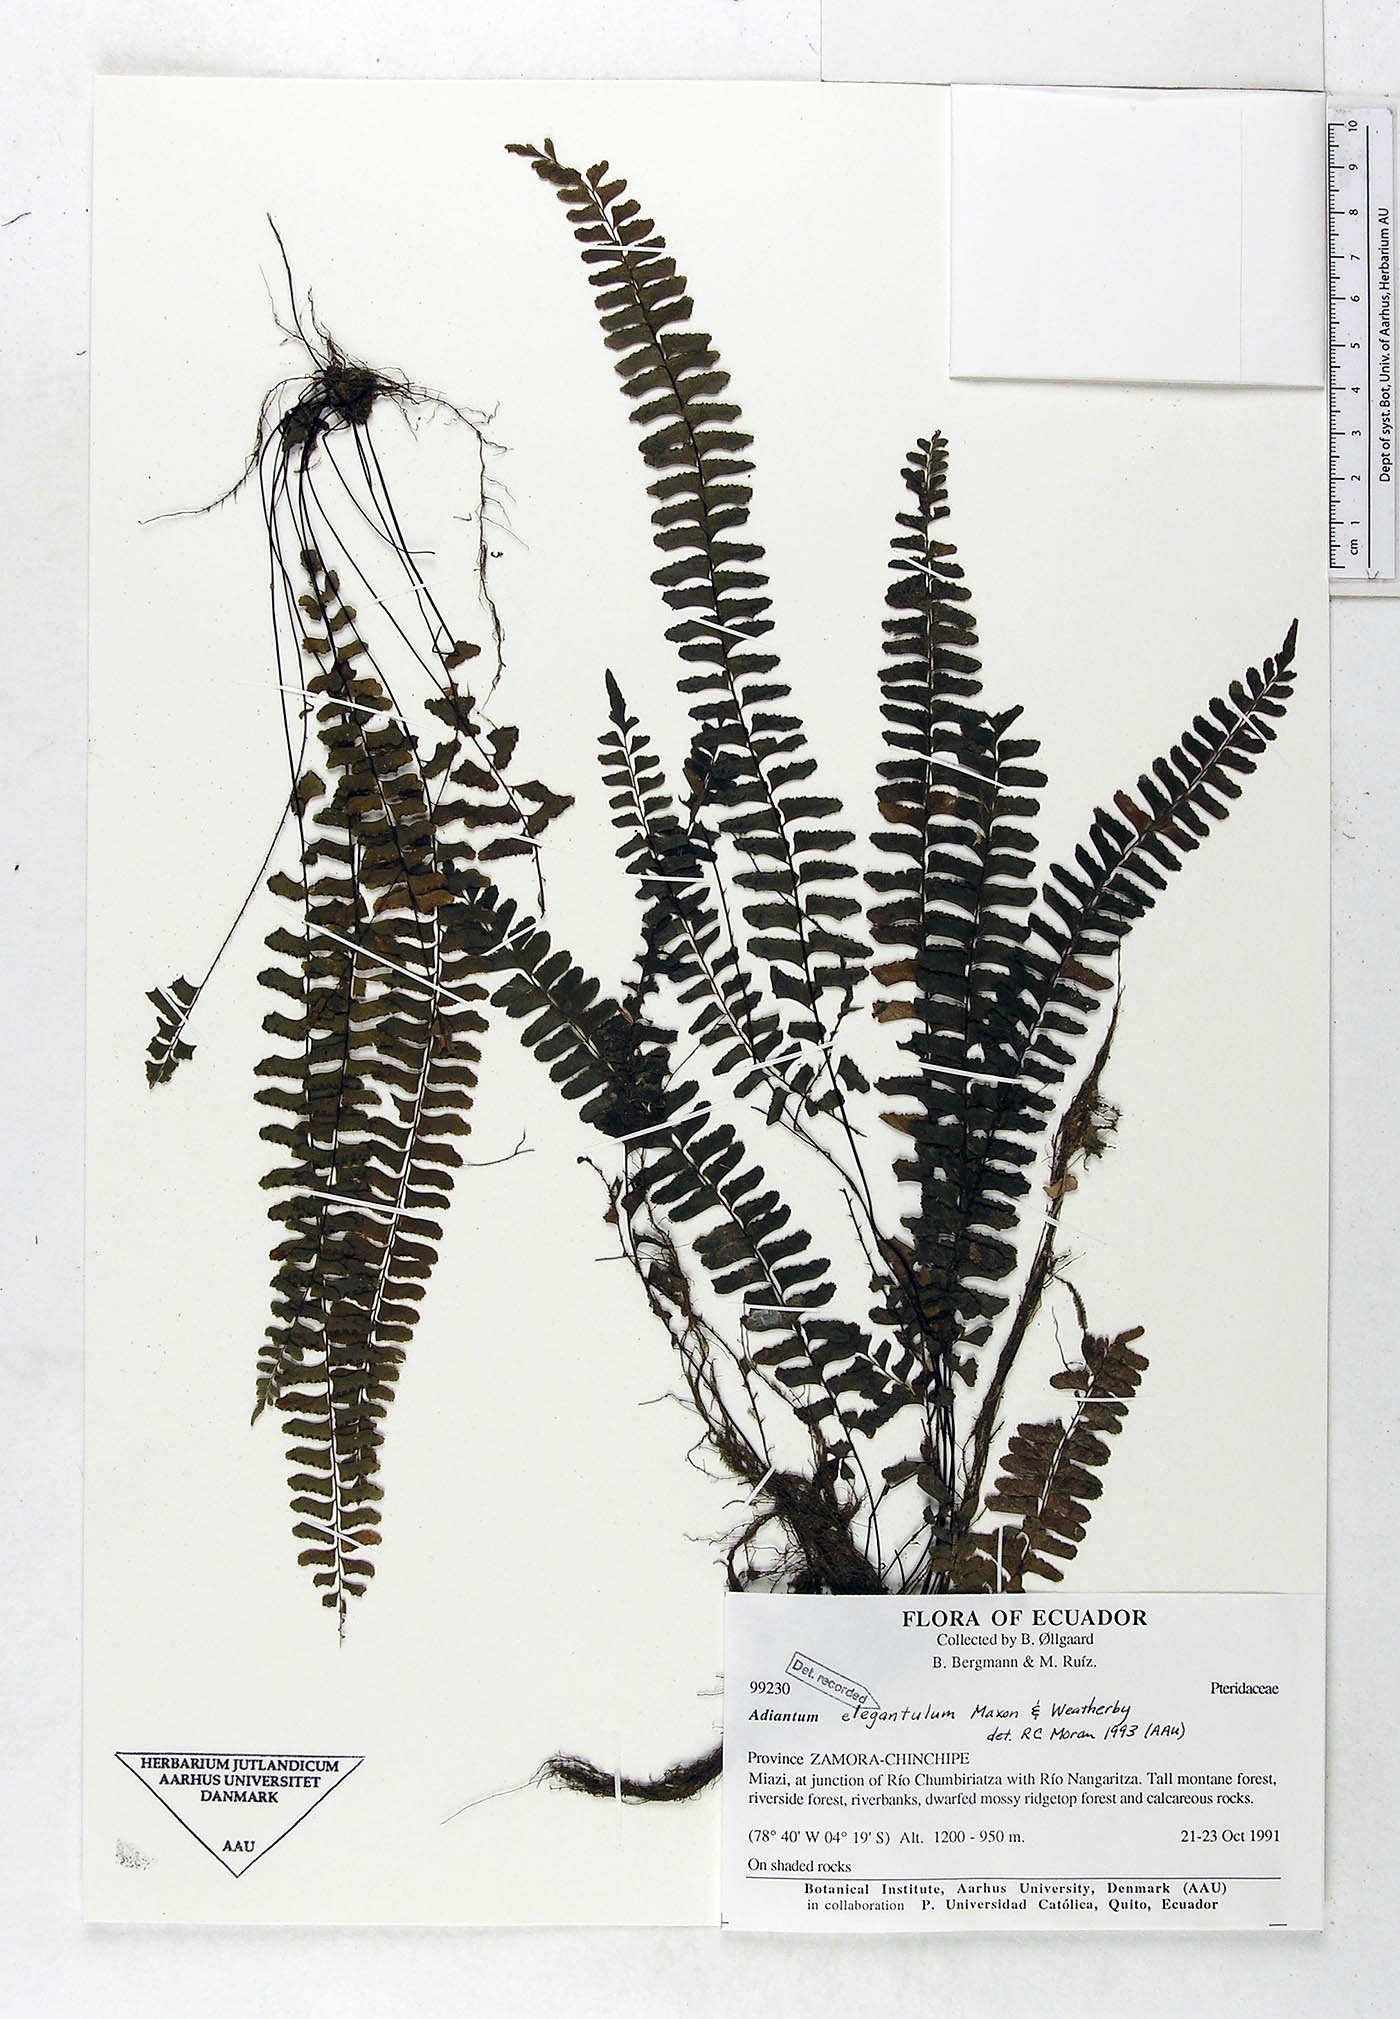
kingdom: Plantae
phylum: Tracheophyta
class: Polypodiopsida
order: Polypodiales
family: Pteridaceae
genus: Adiantum
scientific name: Adiantum elegantulum
